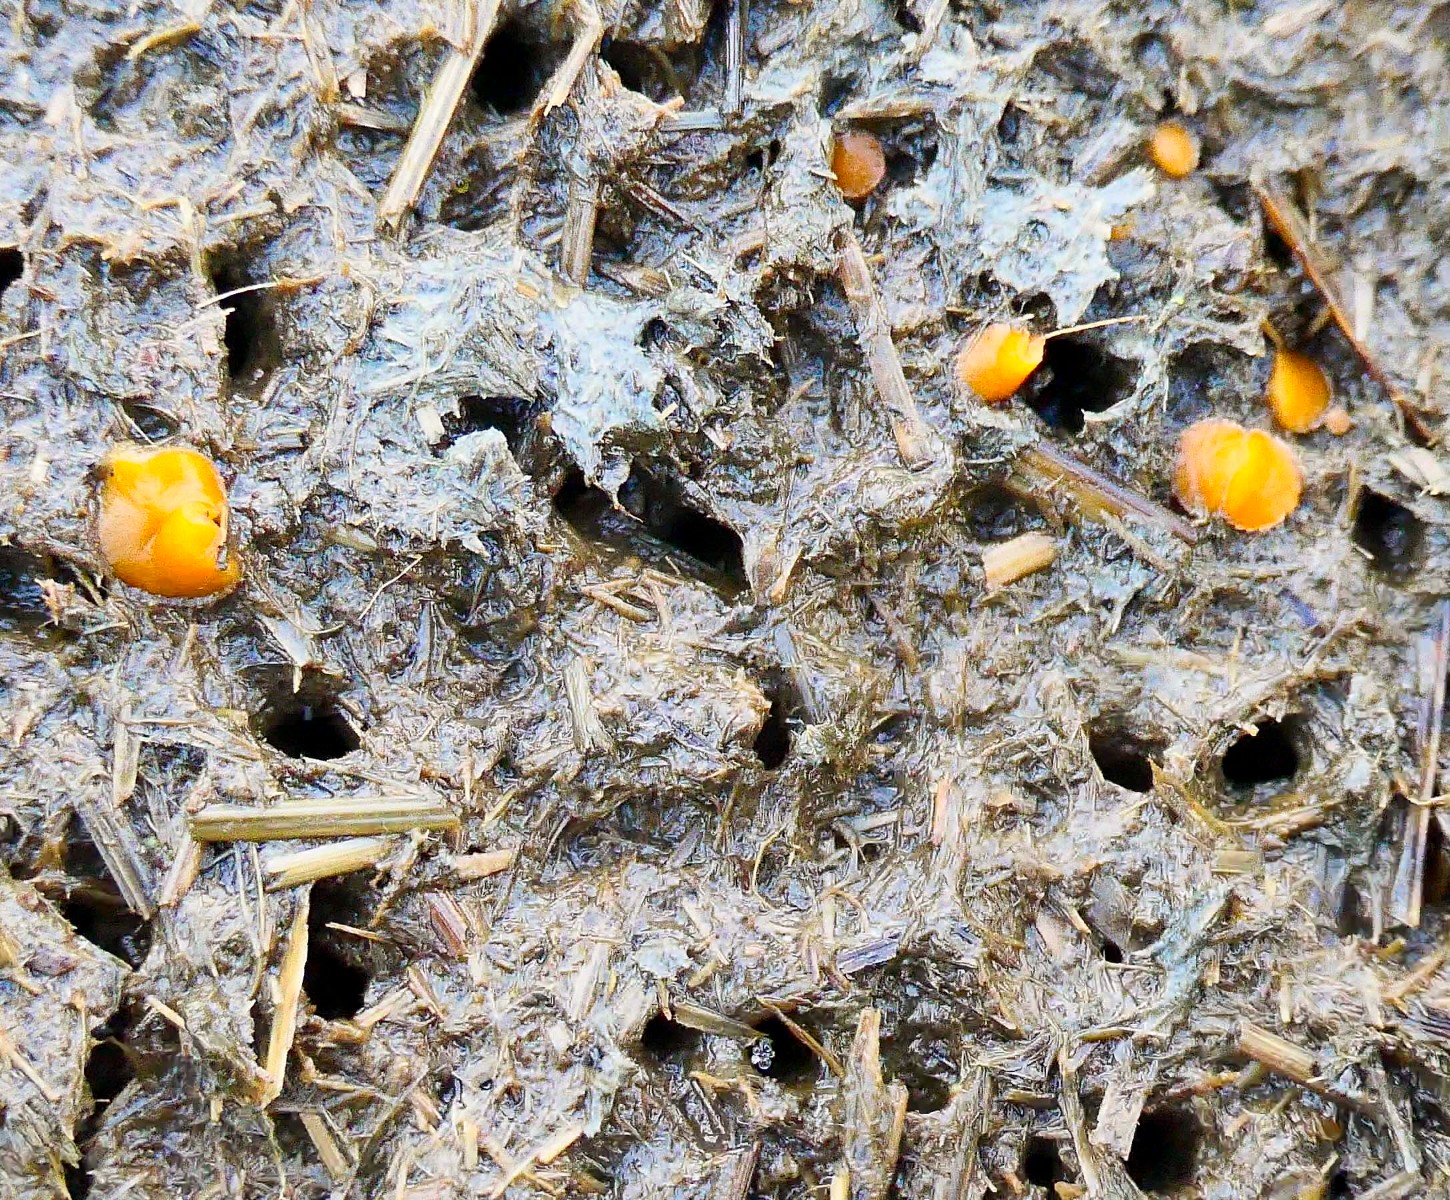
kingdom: Fungi
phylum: Ascomycota
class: Pezizomycetes
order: Pezizales
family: Pyronemataceae
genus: Cheilymenia
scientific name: Cheilymenia granulata
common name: møgbæger
